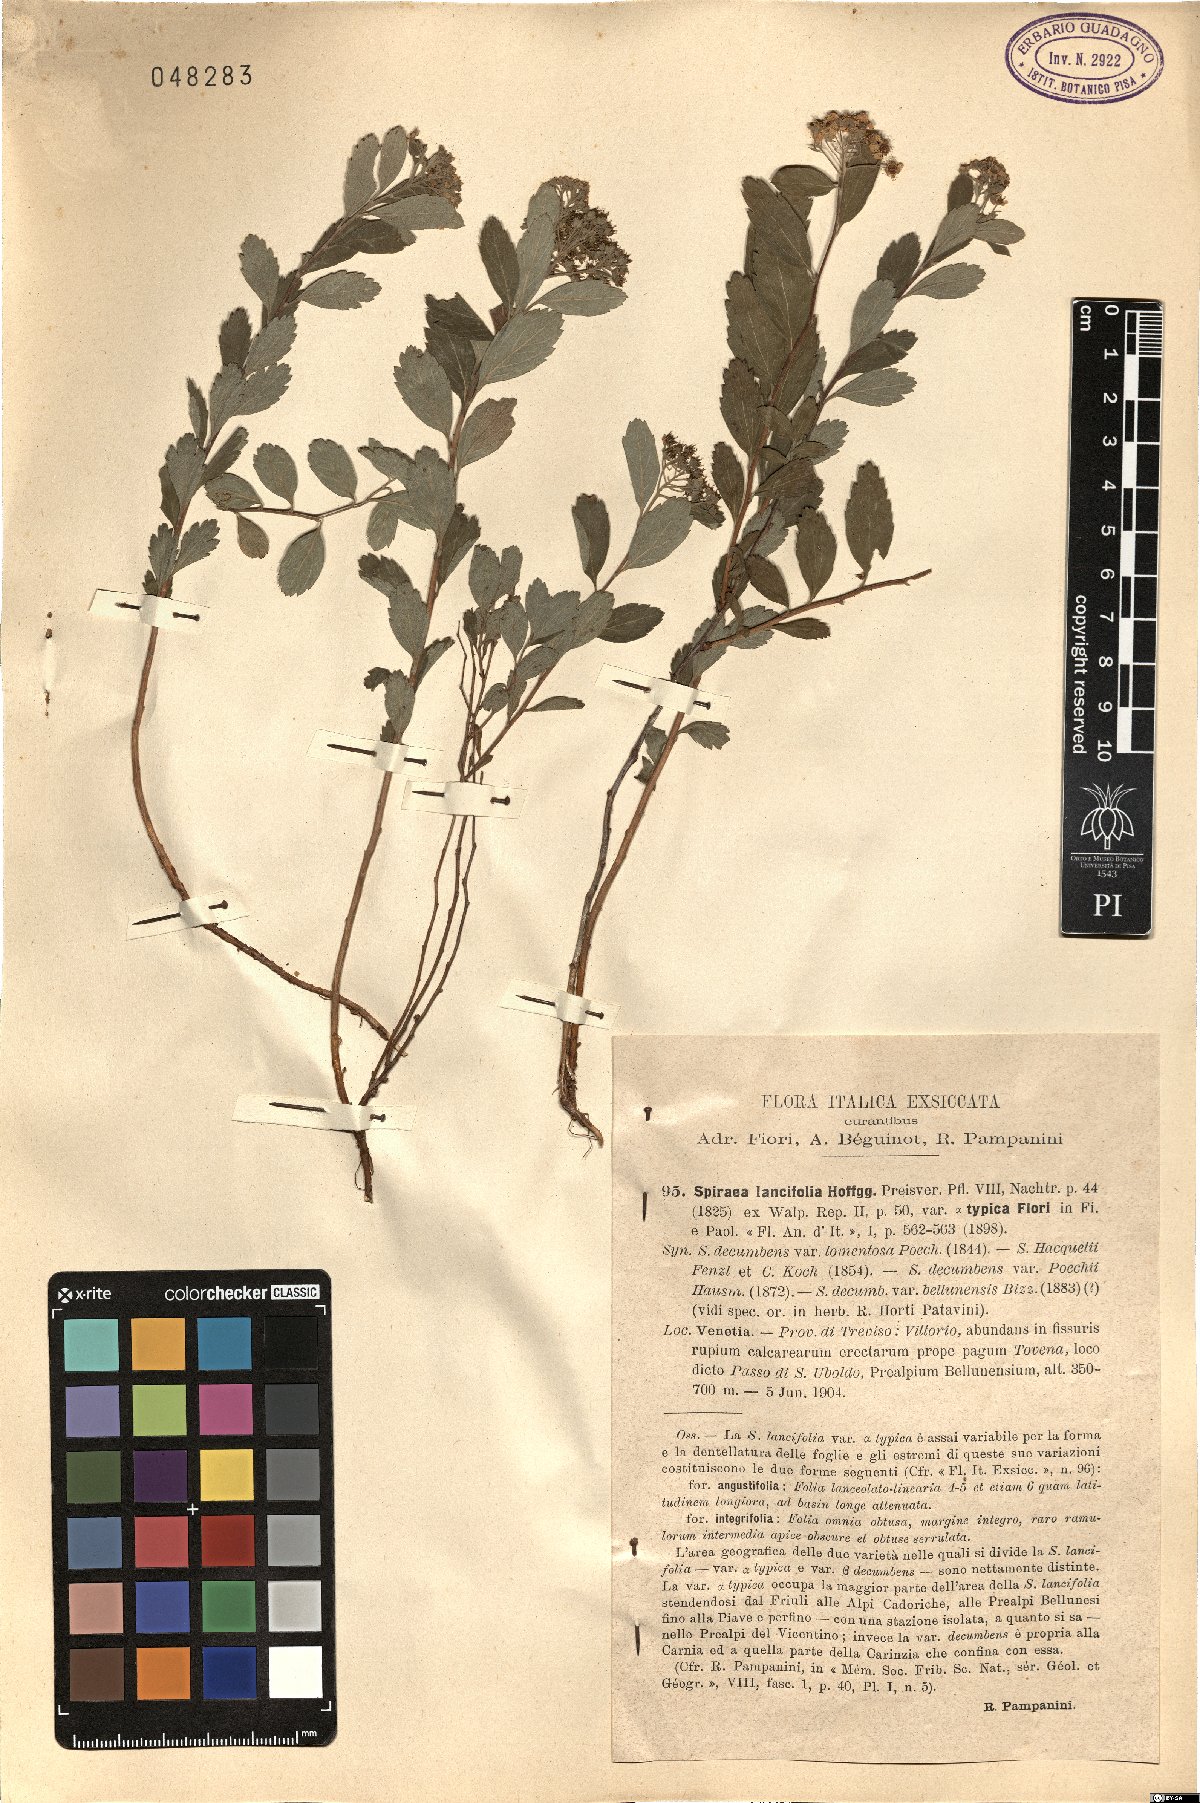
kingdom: Plantae
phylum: Tracheophyta
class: Magnoliopsida
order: Rosales
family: Rosaceae
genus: Spiraea
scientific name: Spiraea decumbens
